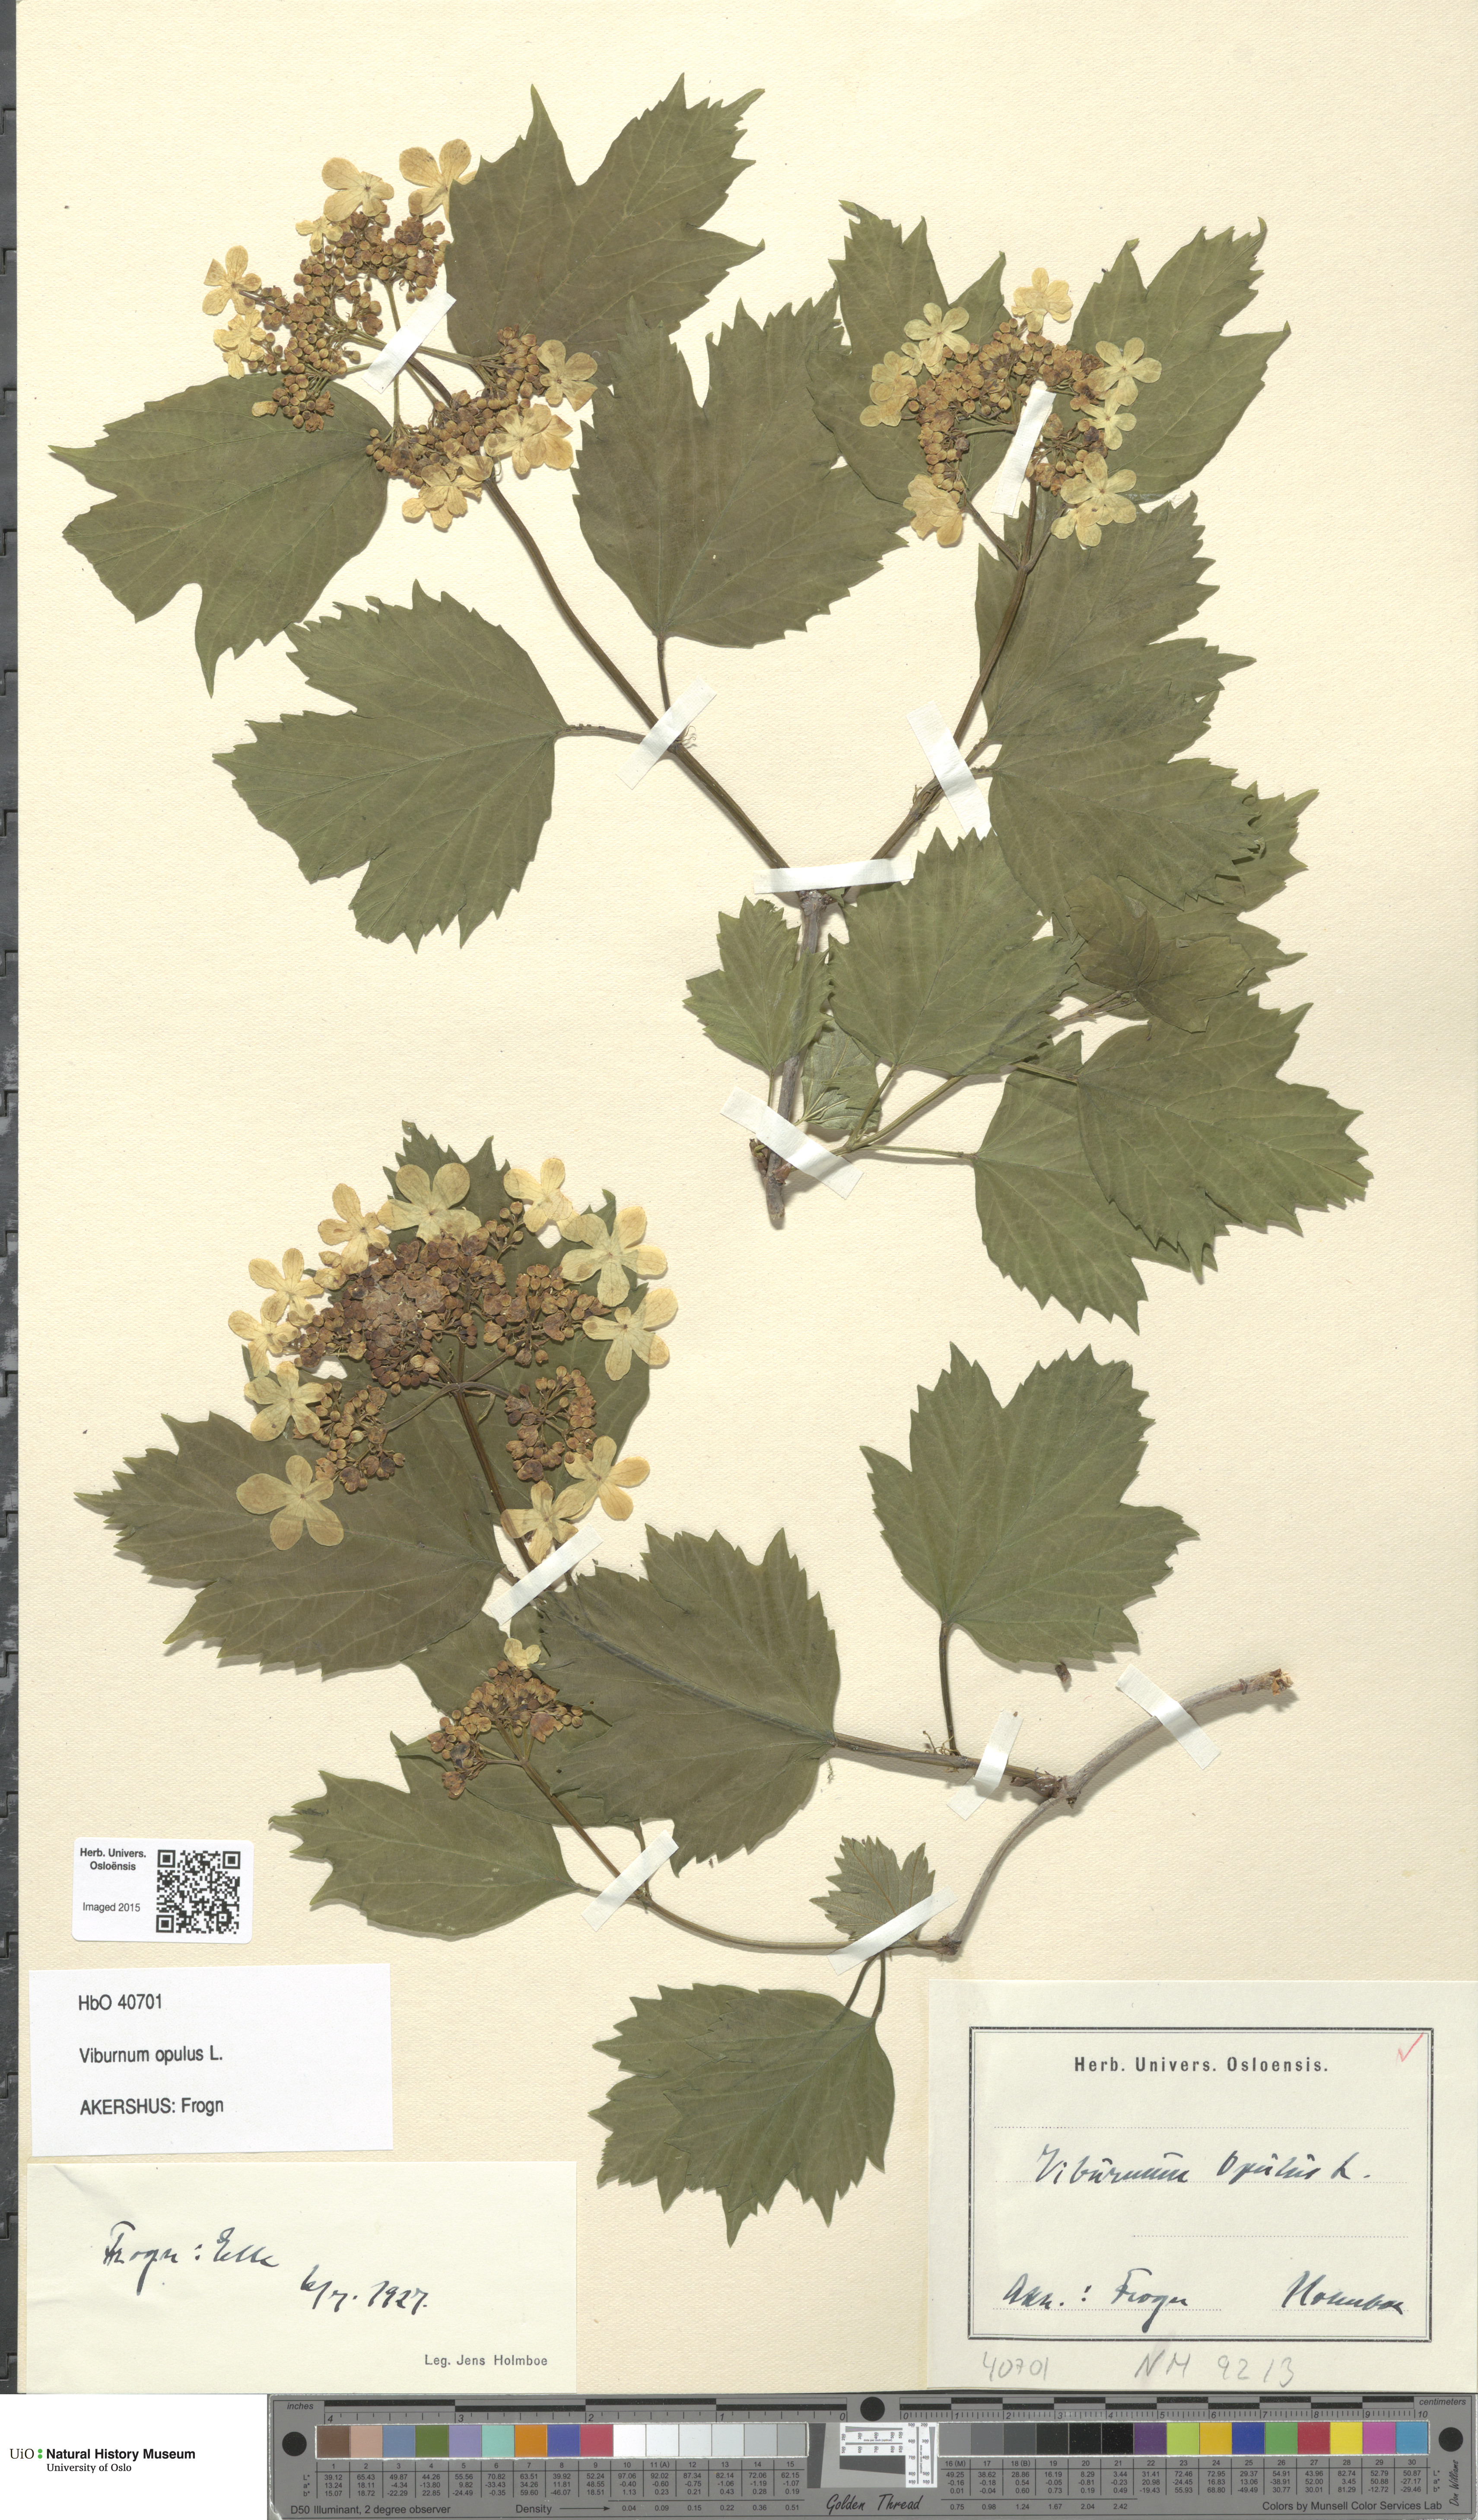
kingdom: Plantae
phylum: Tracheophyta
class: Magnoliopsida
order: Dipsacales
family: Viburnaceae
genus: Viburnum
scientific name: Viburnum opulus
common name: Guelder-rose
